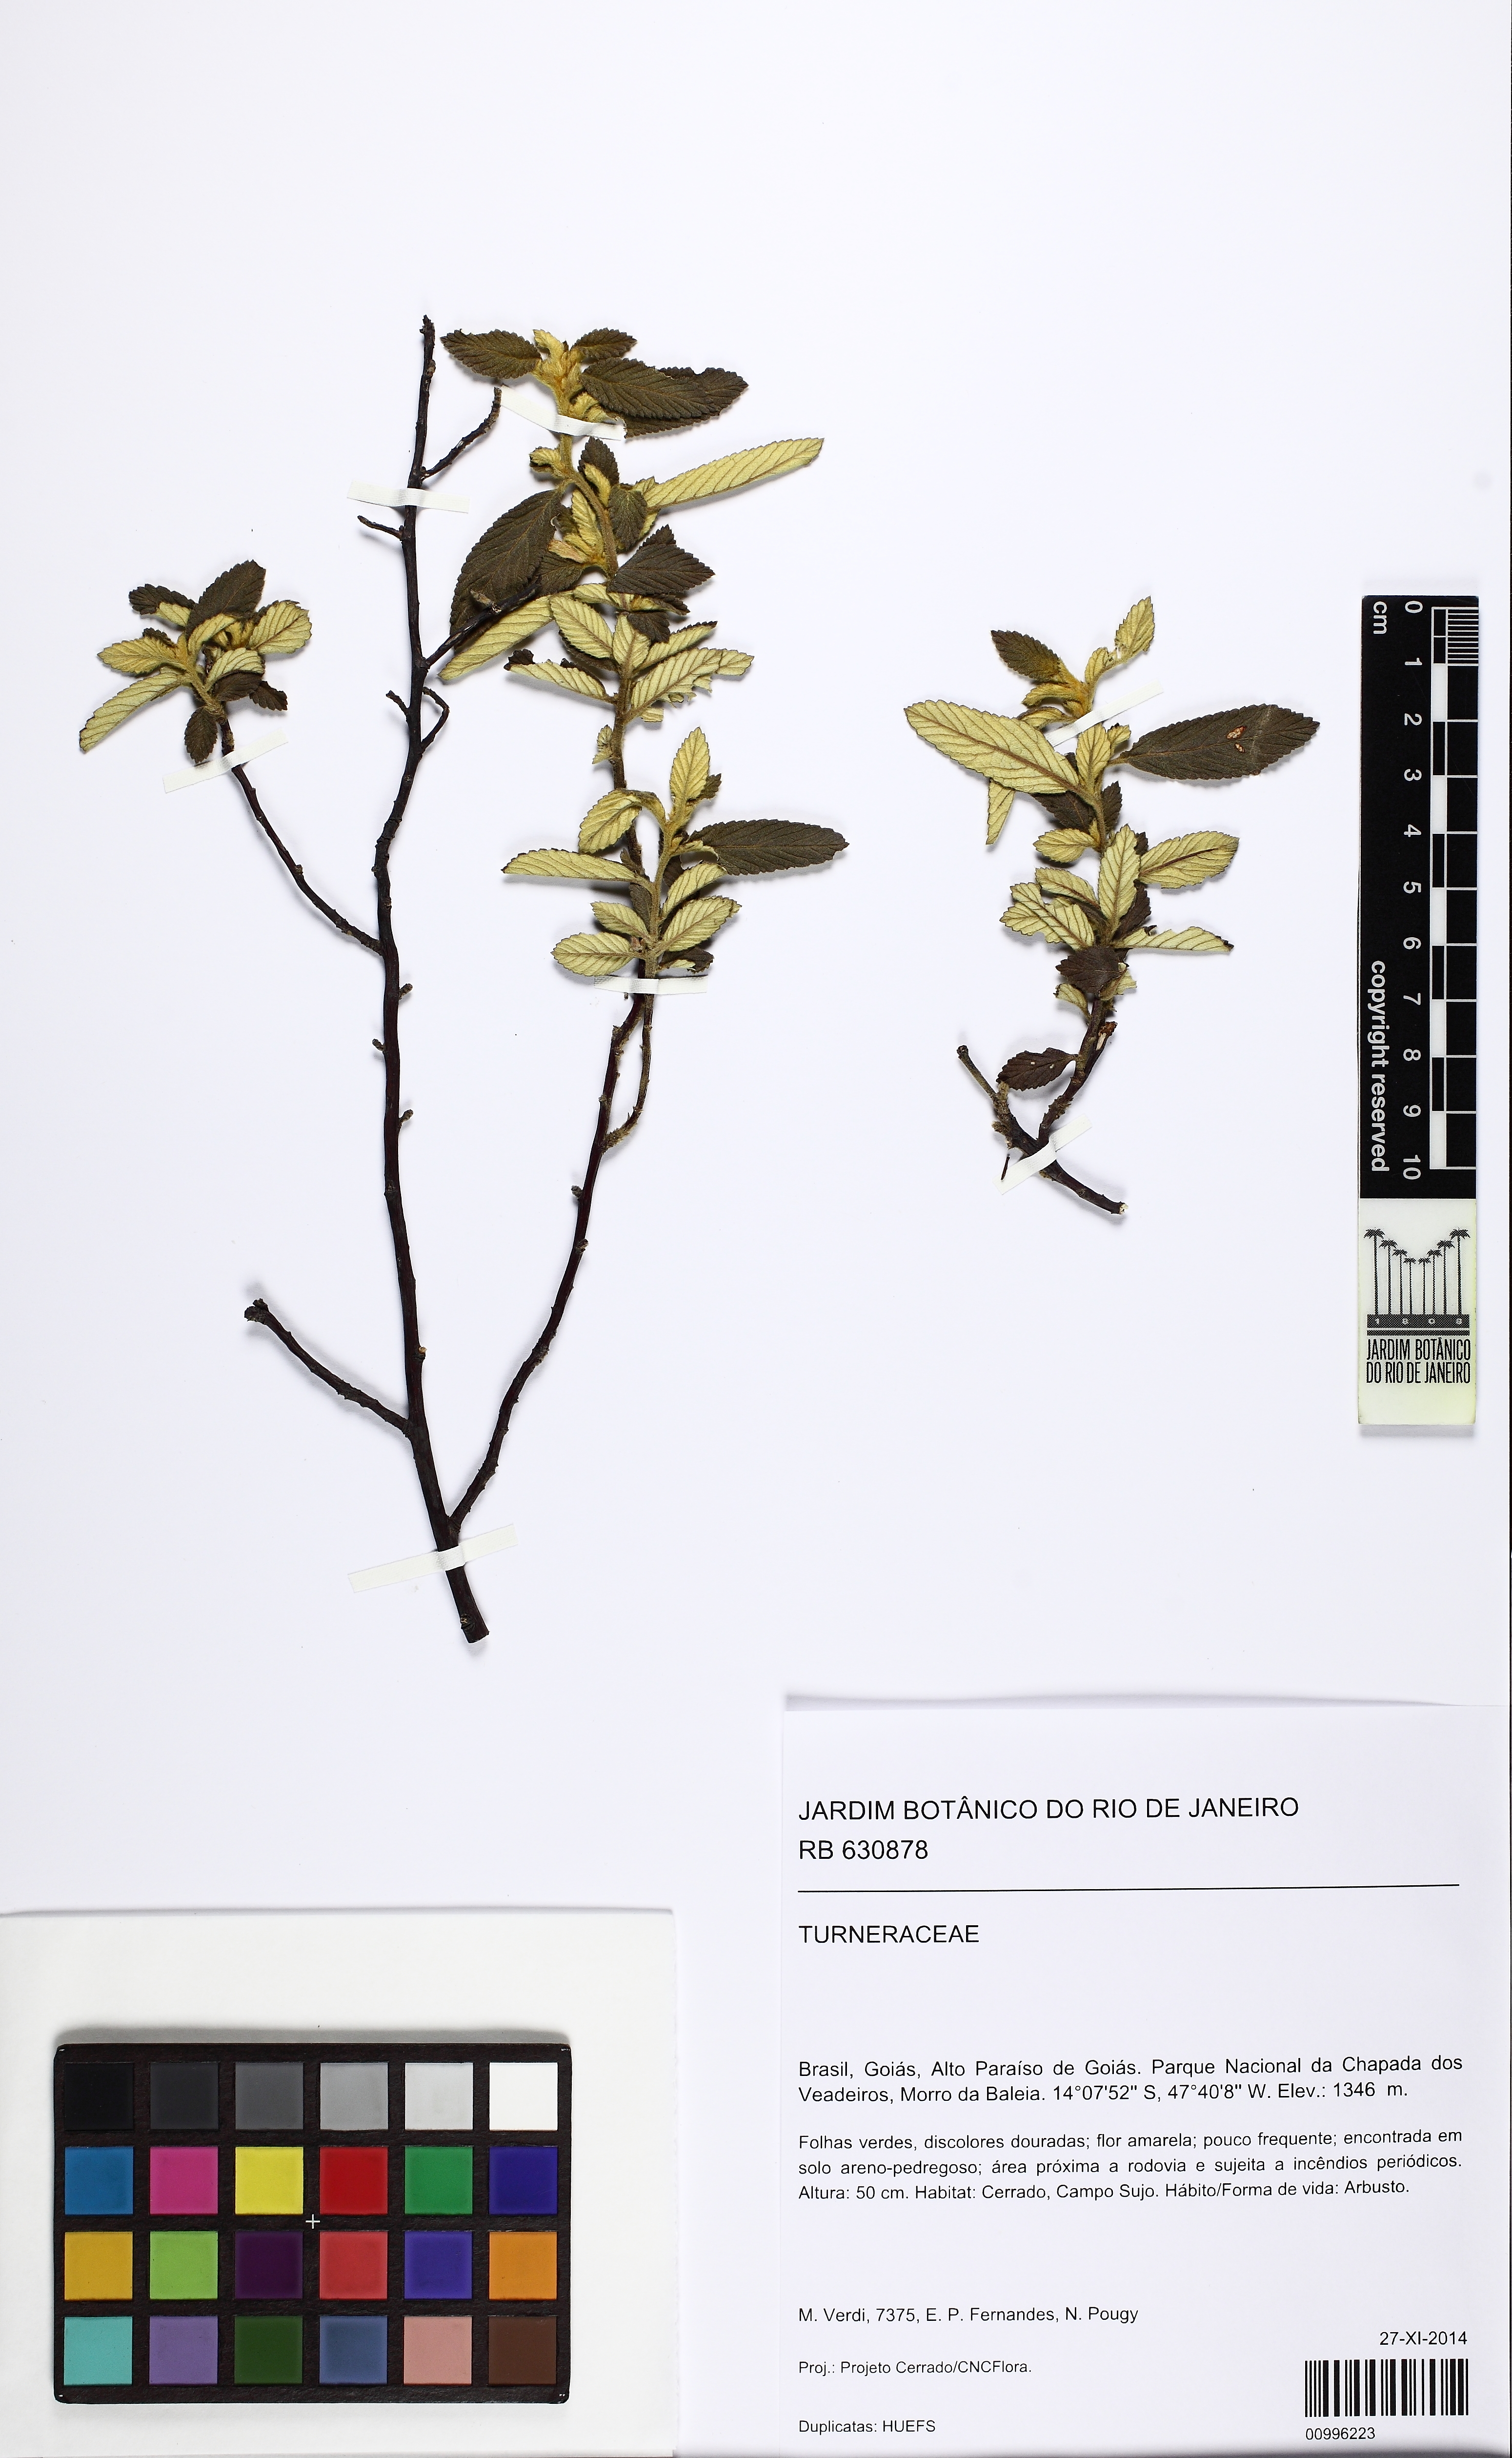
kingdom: Plantae
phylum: Tracheophyta
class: Magnoliopsida
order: Malpighiales
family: Turneraceae
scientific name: Turneraceae
